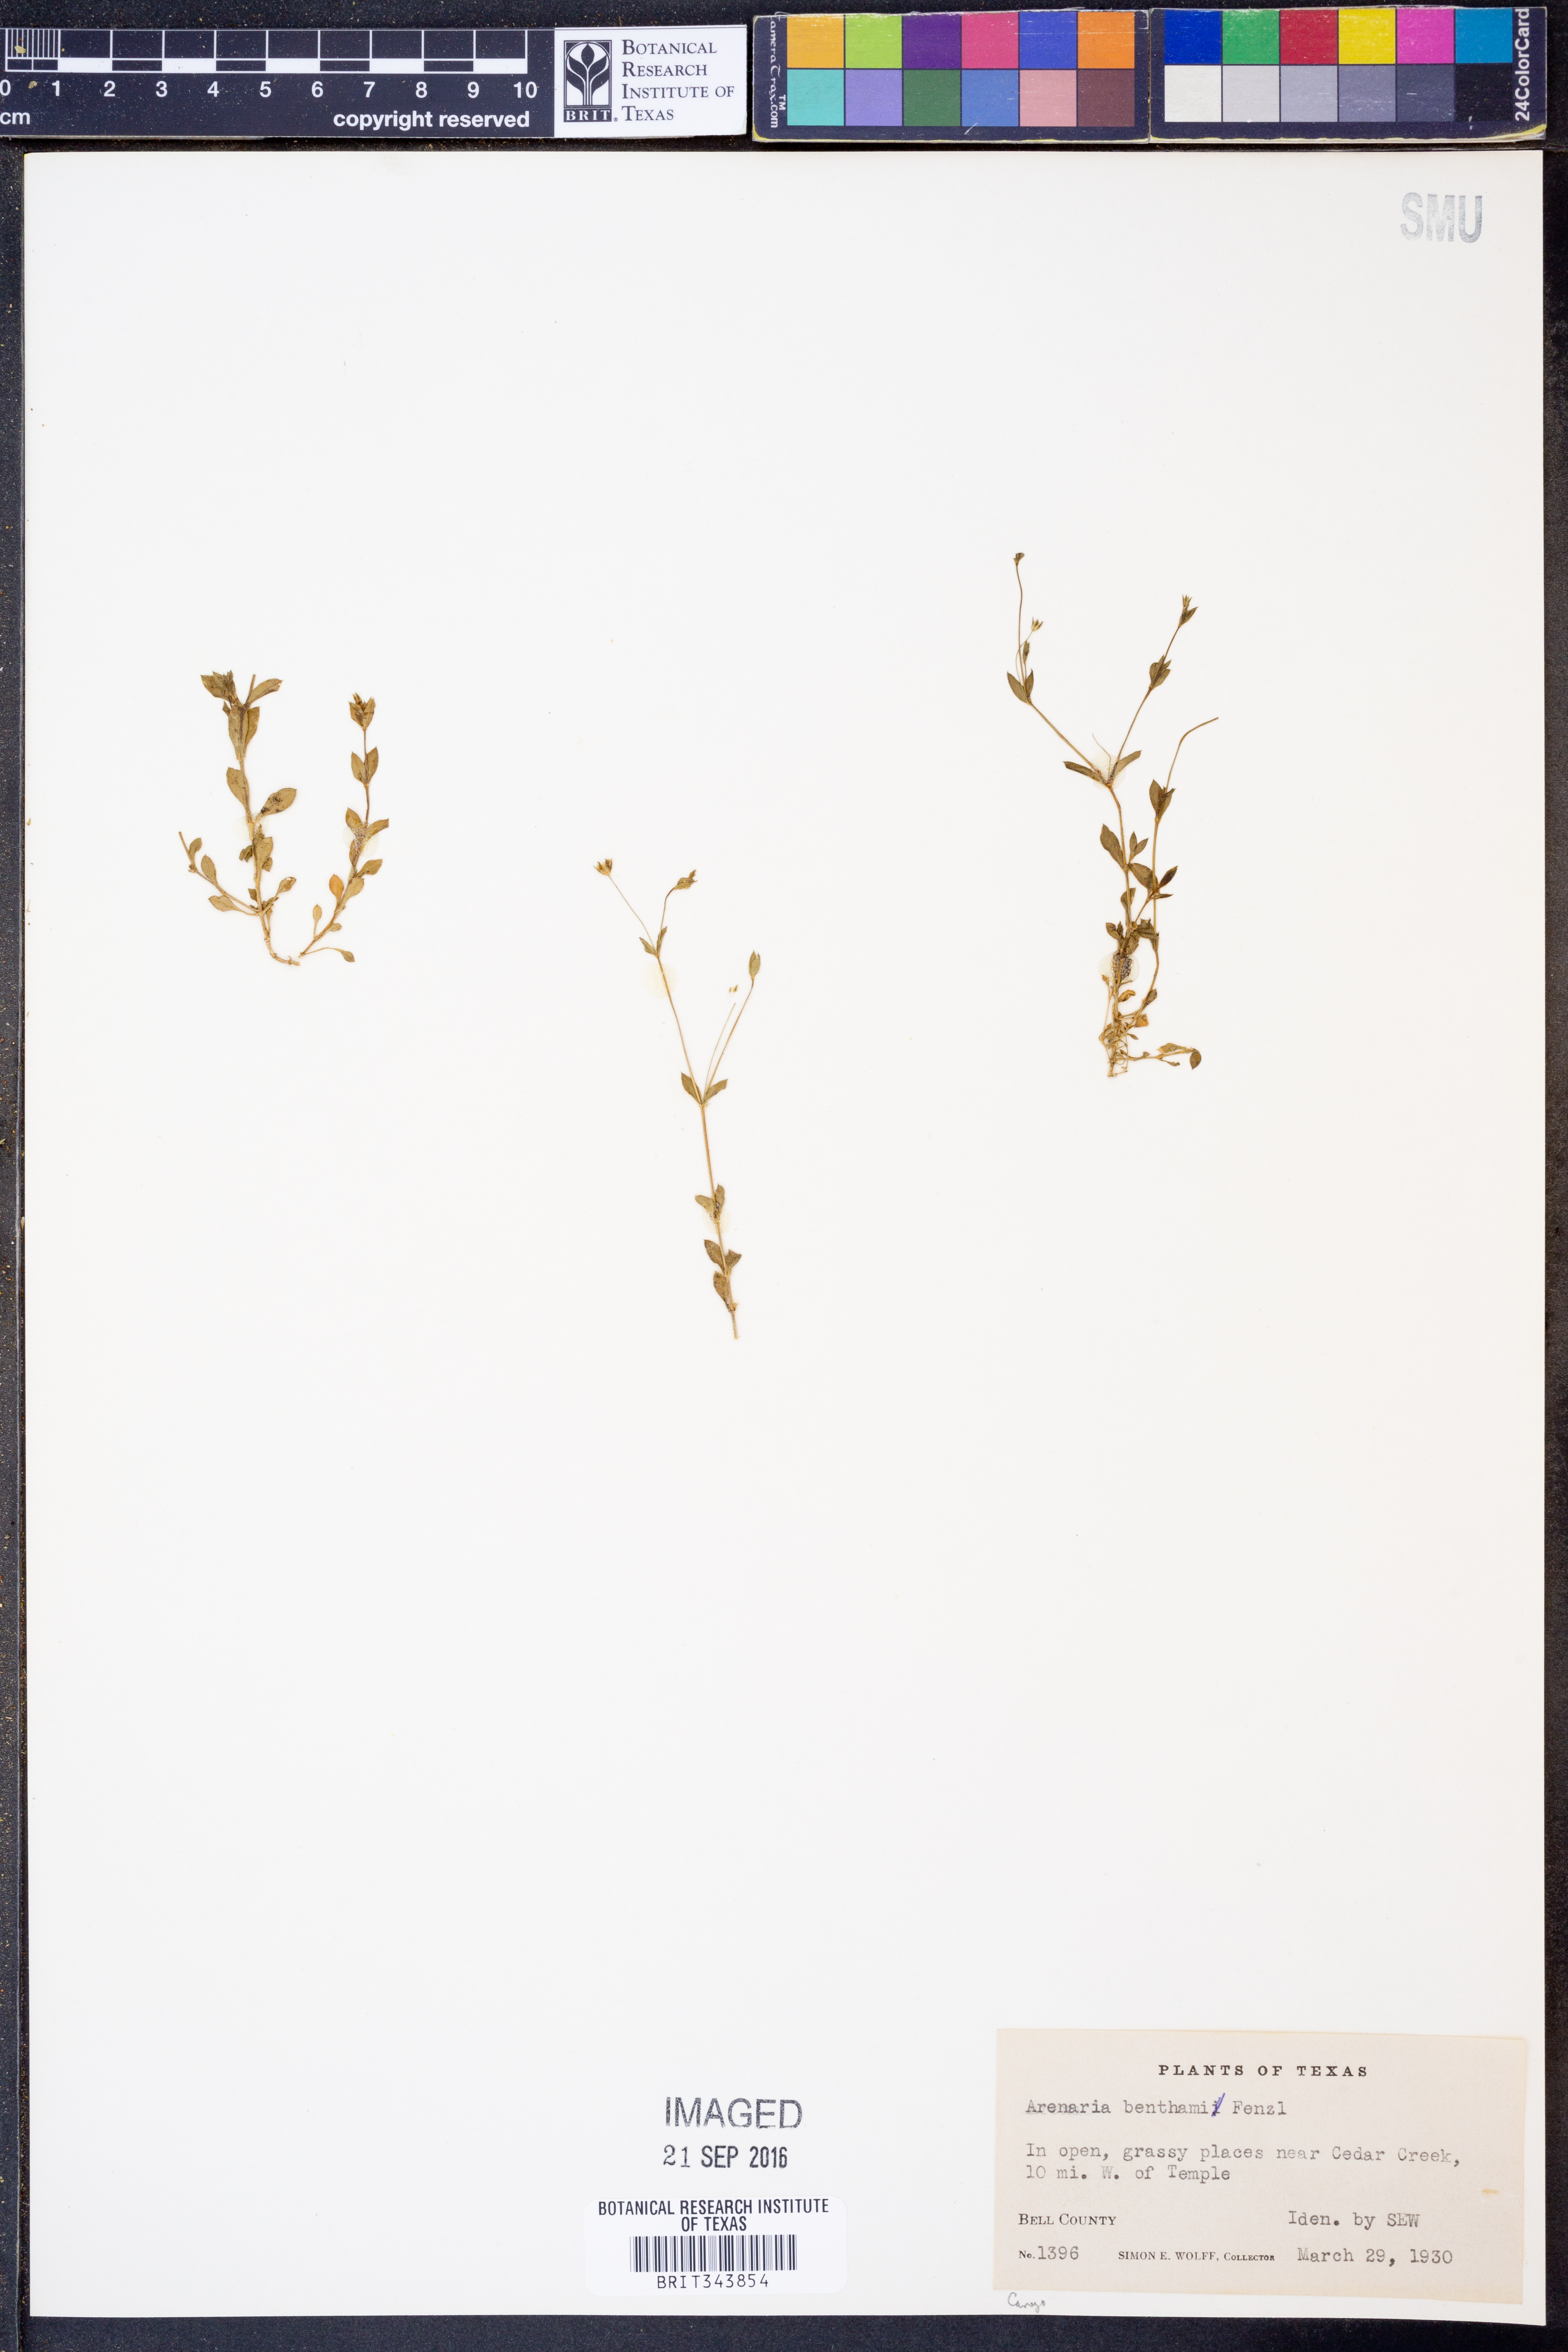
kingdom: Plantae
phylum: Tracheophyta
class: Magnoliopsida
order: Caryophyllales
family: Caryophyllaceae
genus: Arenaria
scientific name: Arenaria benthamii
